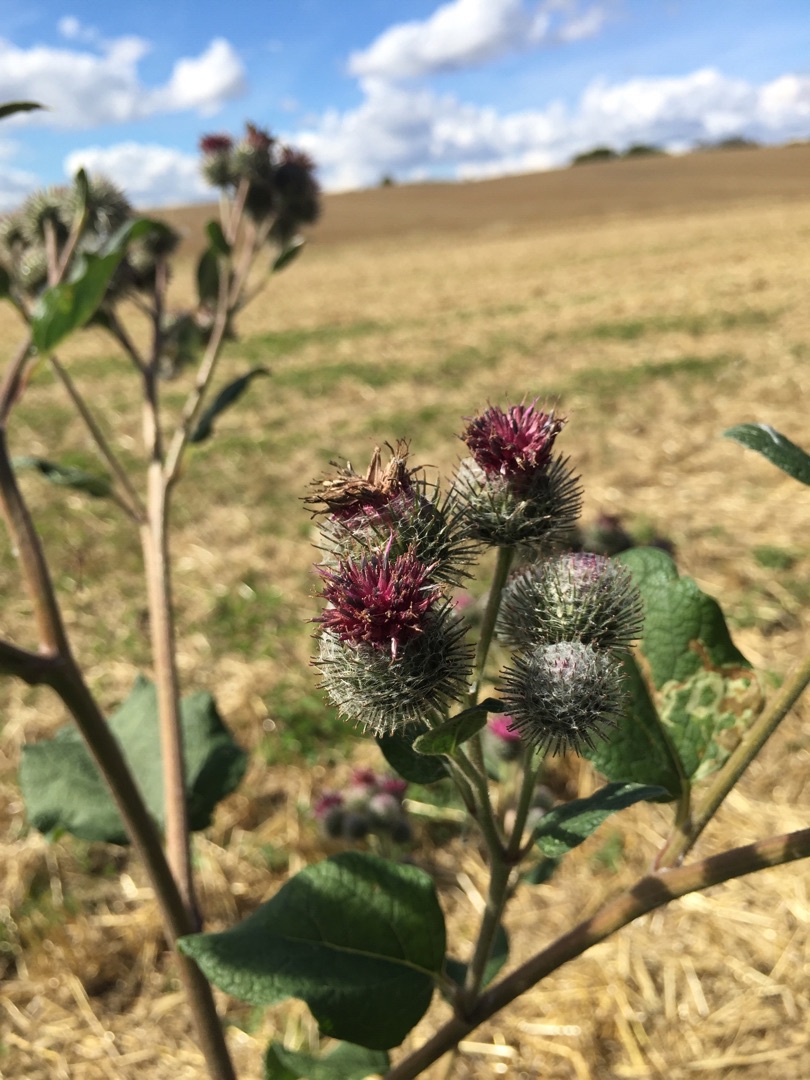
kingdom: Plantae
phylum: Tracheophyta
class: Magnoliopsida
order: Asterales
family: Asteraceae
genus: Arctium
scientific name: Arctium tomentosum
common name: Filtet burre
